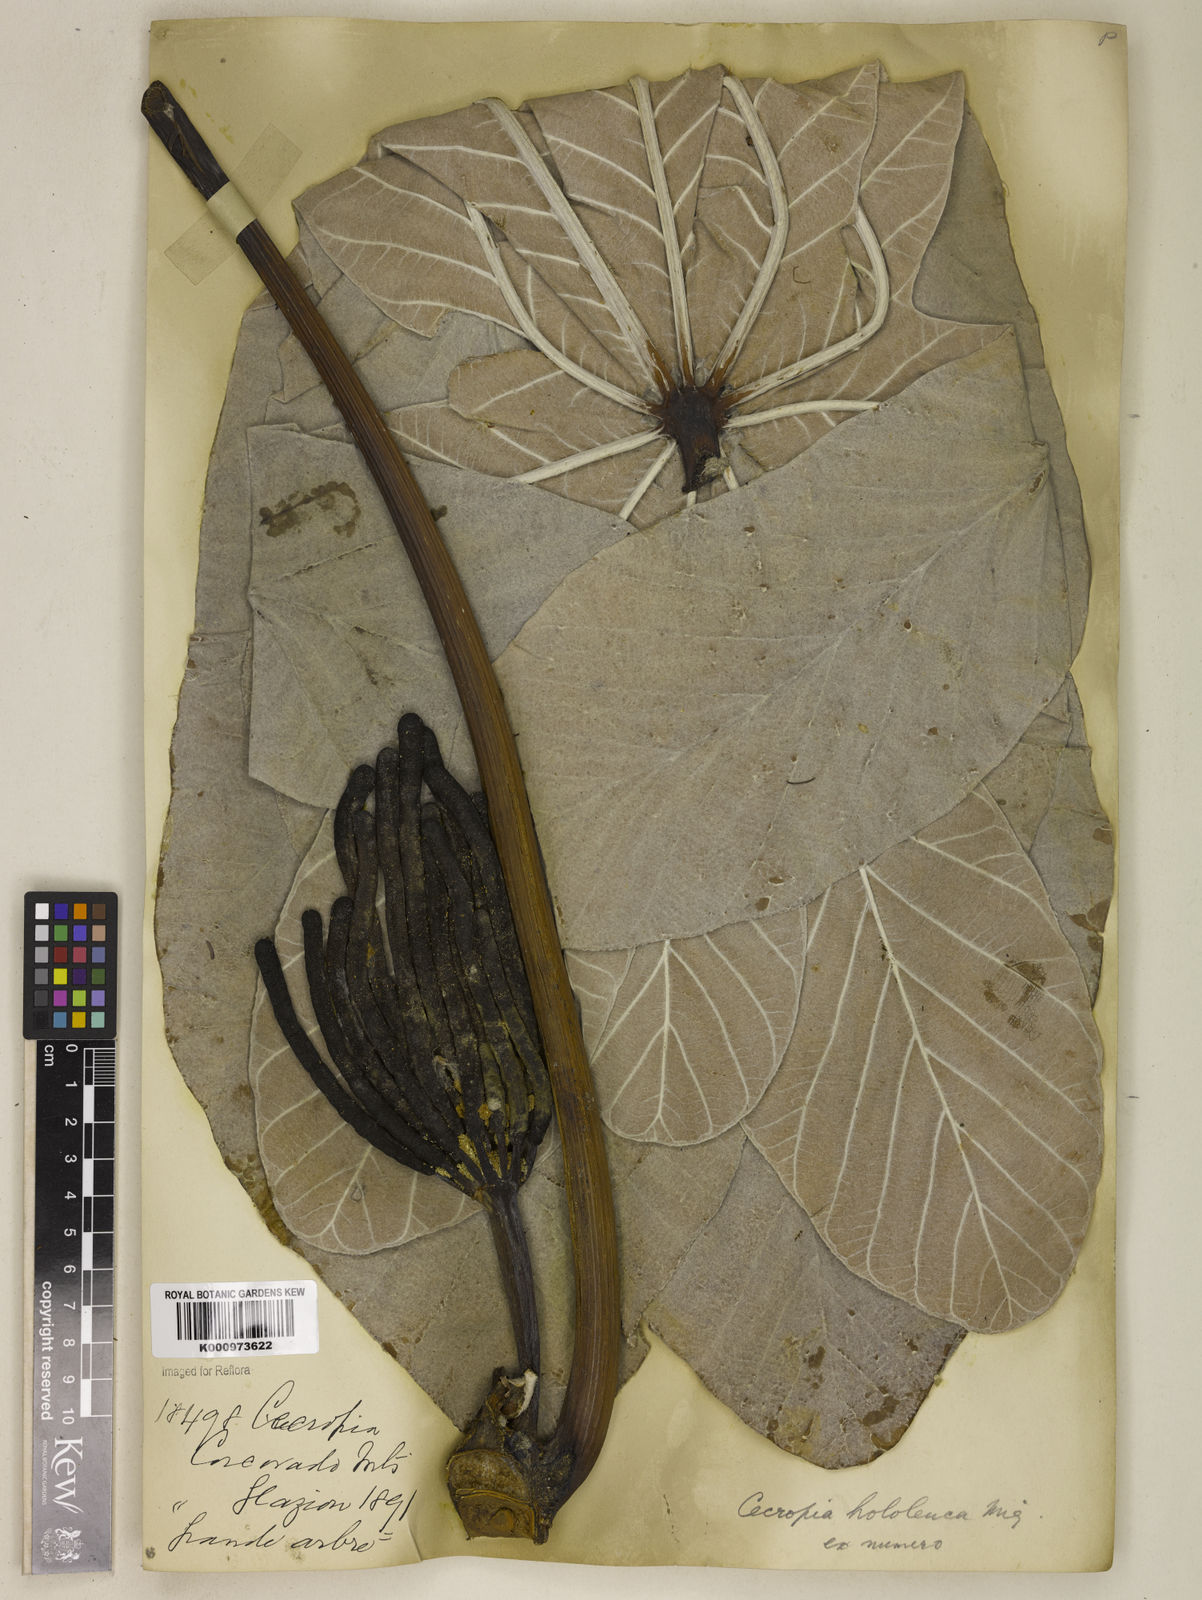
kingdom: Plantae
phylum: Tracheophyta
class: Magnoliopsida
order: Rosales
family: Urticaceae
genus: Cecropia
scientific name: Cecropia hololeuca
